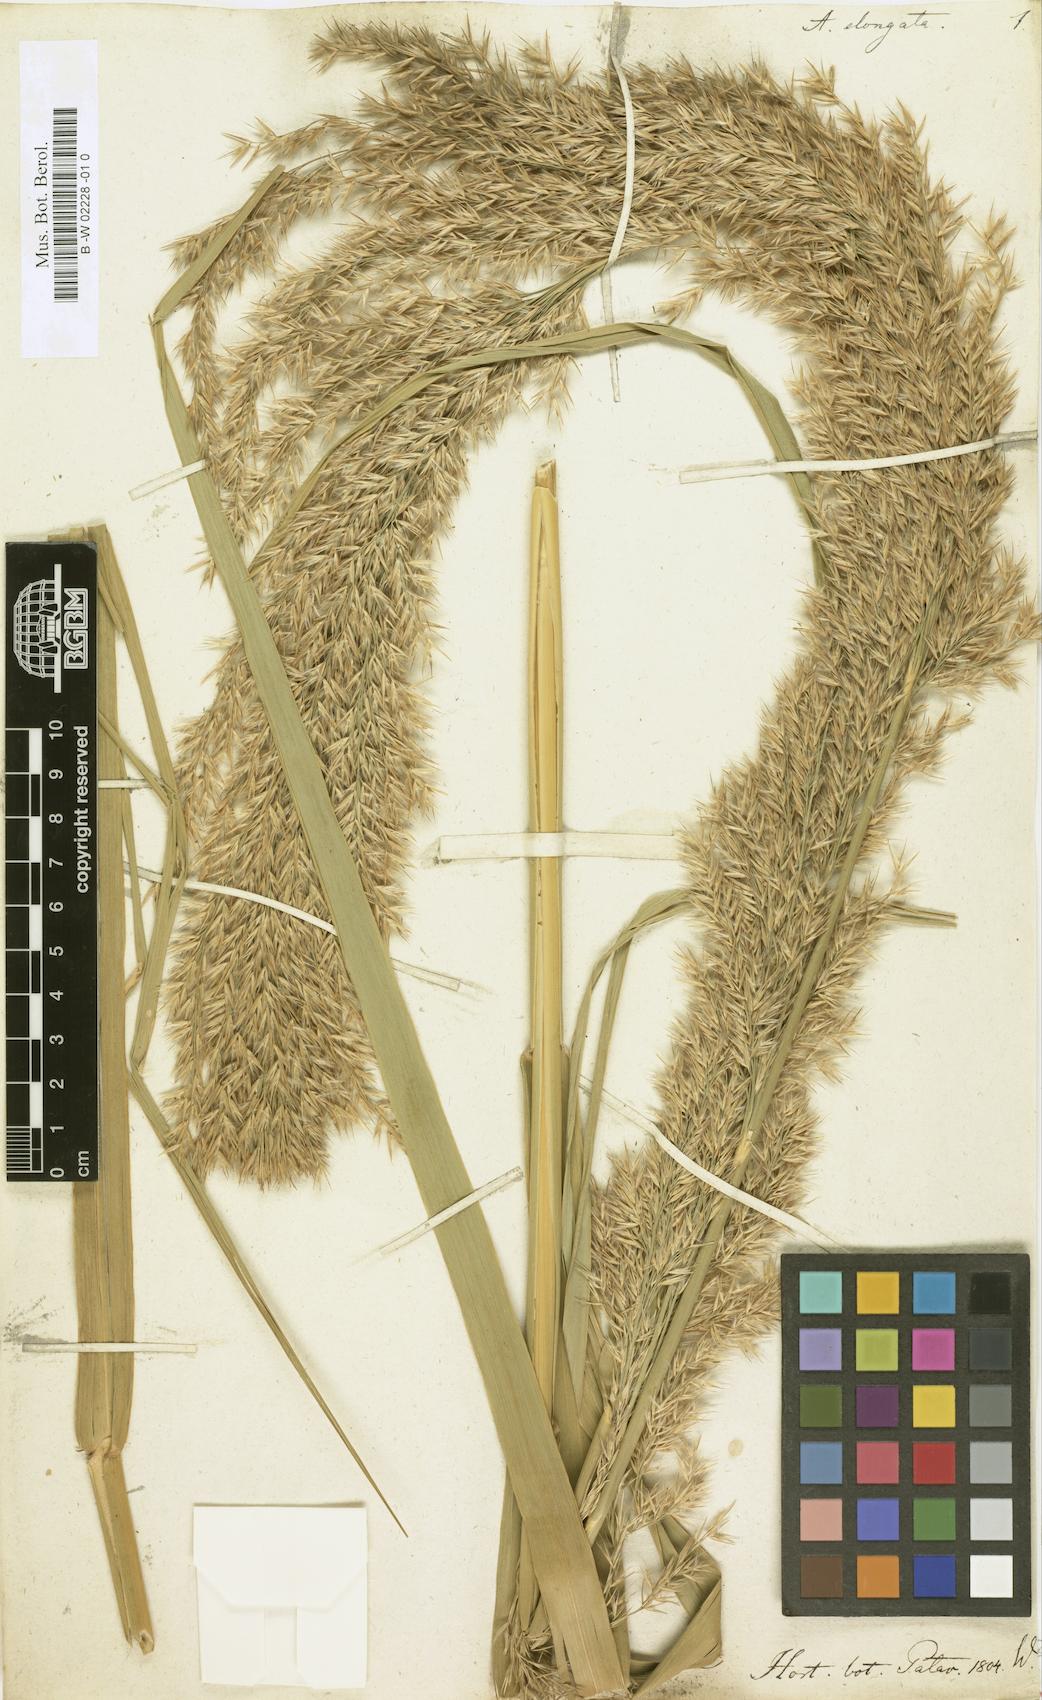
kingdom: Plantae
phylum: Tracheophyta
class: Liliopsida
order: Poales
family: Poaceae
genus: Arundo
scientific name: Arundo
